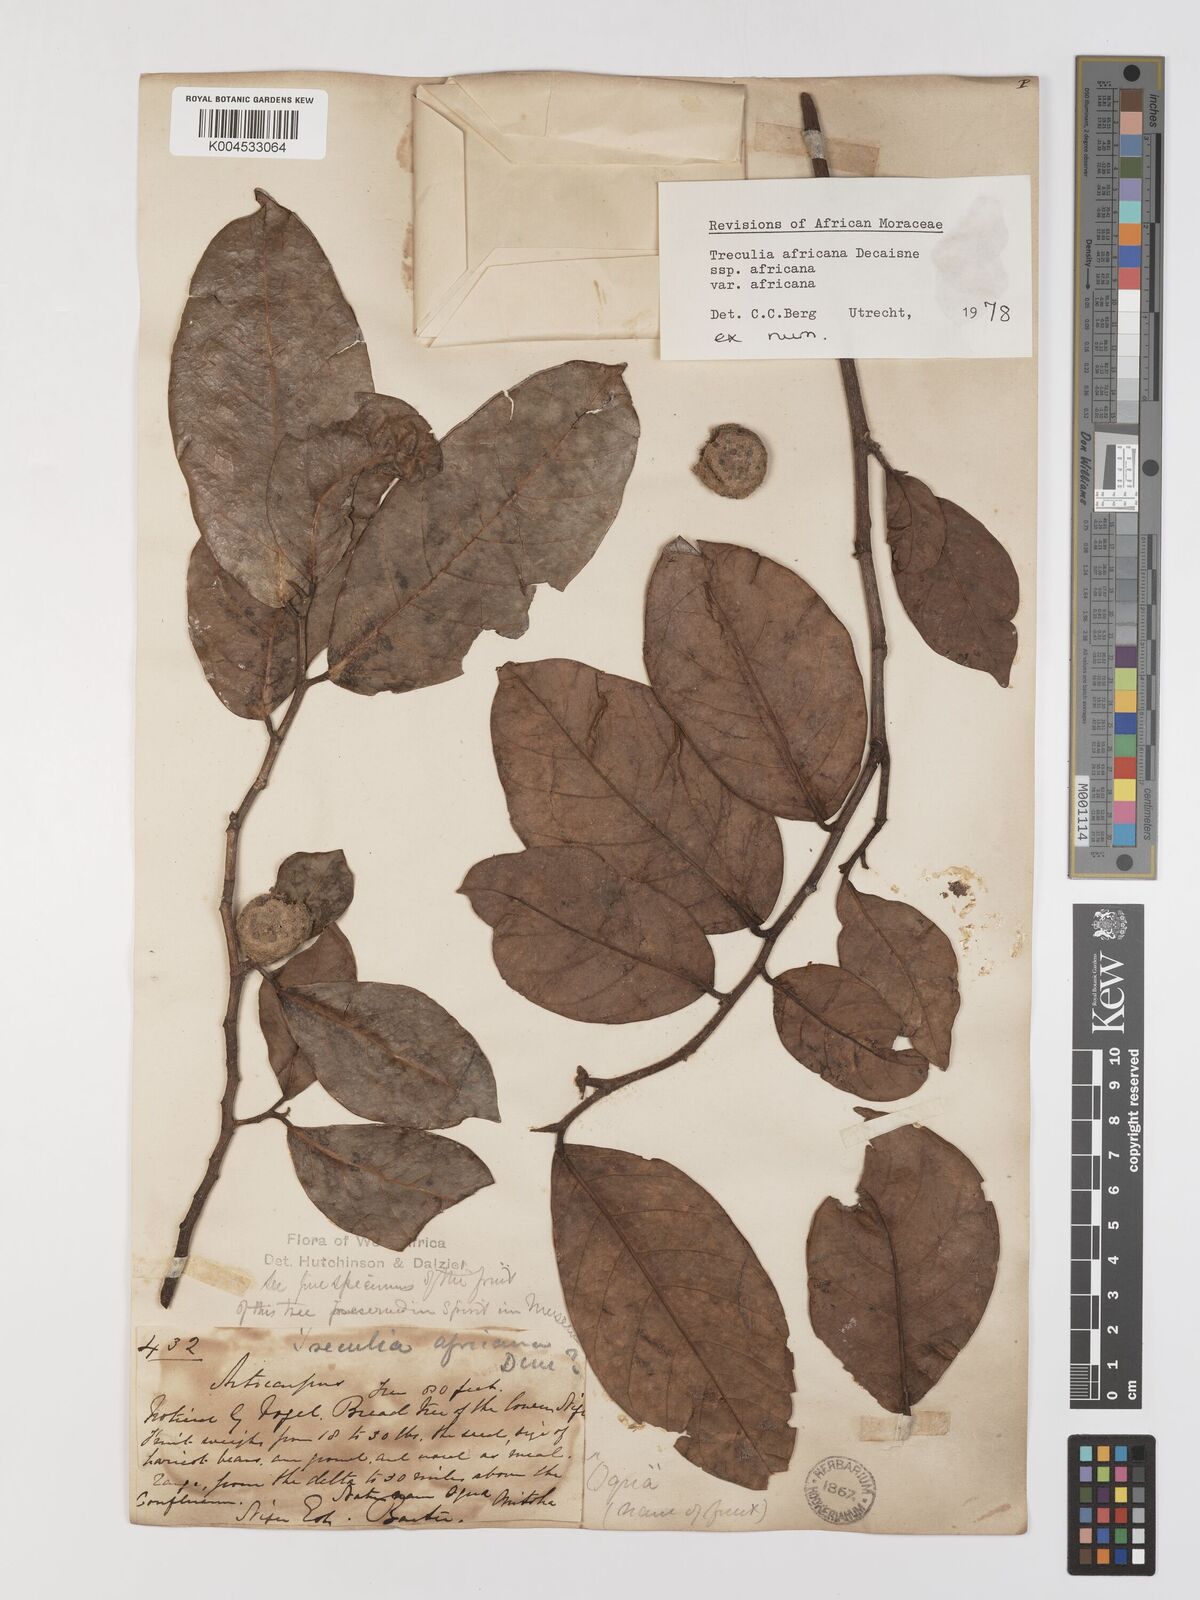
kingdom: Plantae
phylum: Tracheophyta
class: Magnoliopsida
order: Rosales
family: Moraceae
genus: Treculia
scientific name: Treculia africana
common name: African breadfruit
